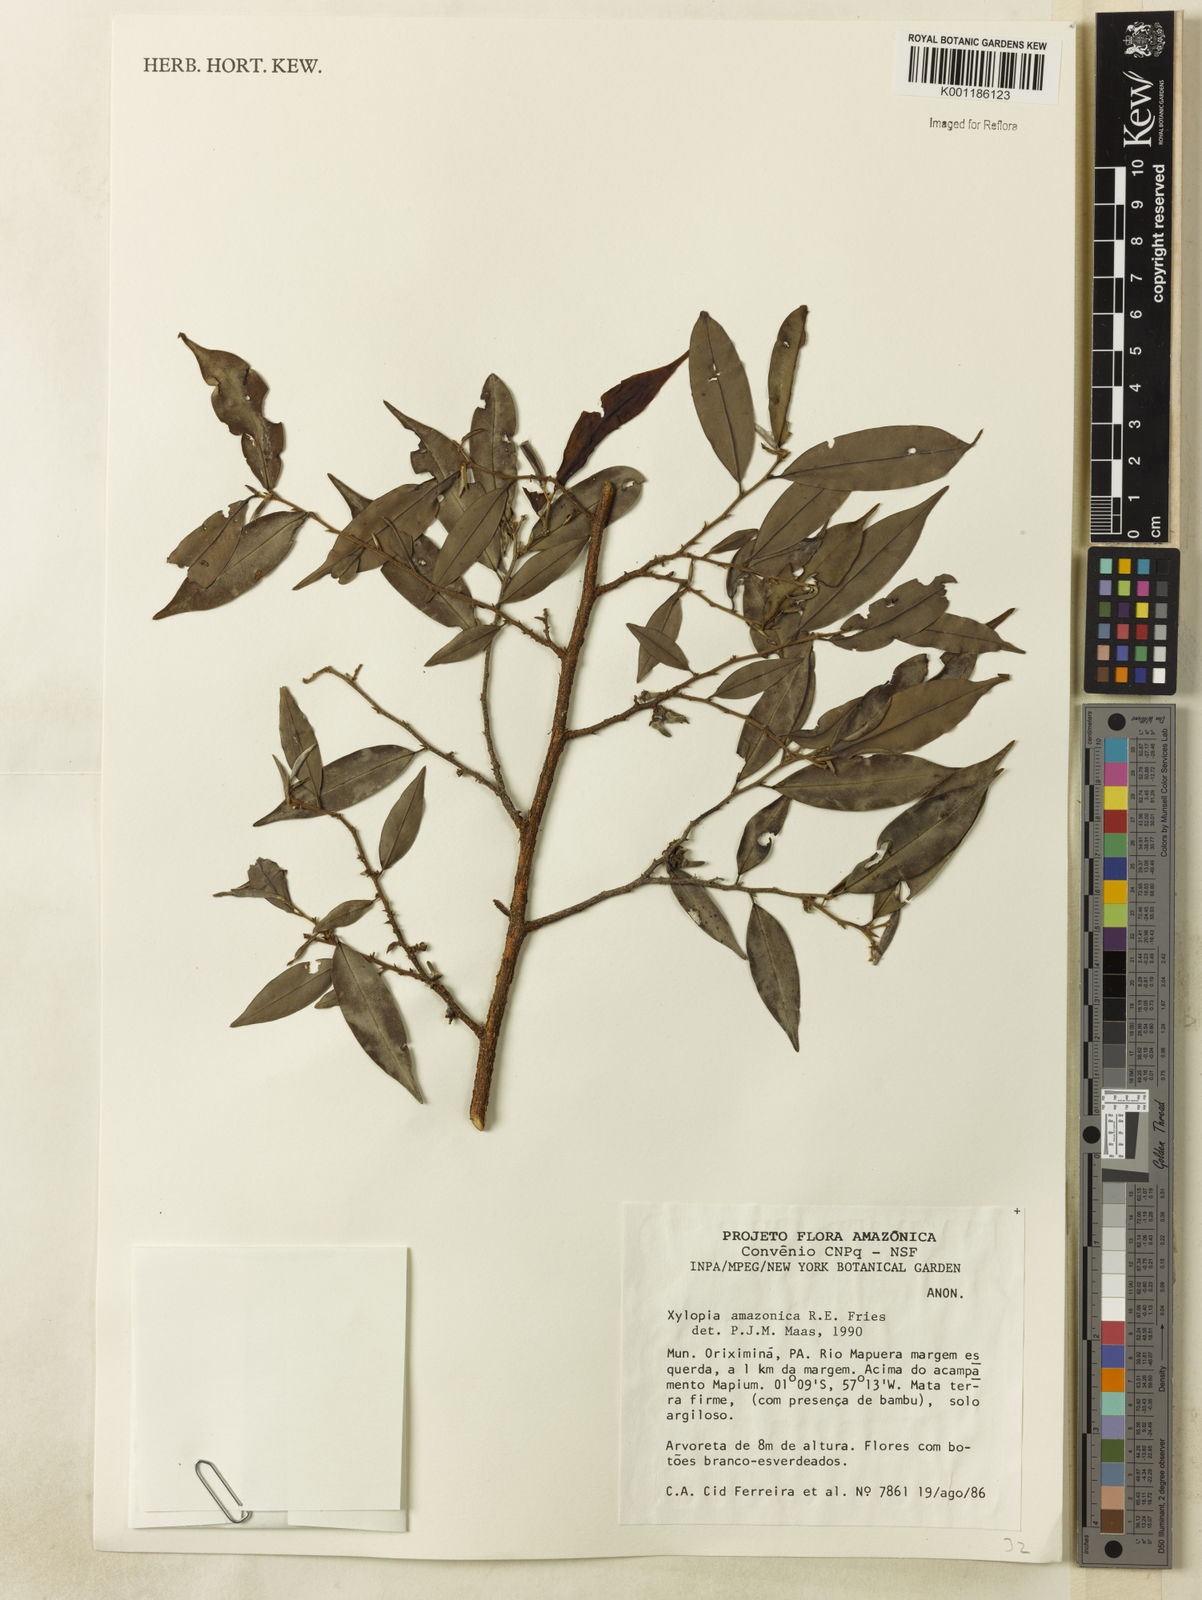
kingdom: Plantae
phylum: Tracheophyta
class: Magnoliopsida
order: Magnoliales
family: Annonaceae
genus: Xylopia
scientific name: Xylopia amazonica
